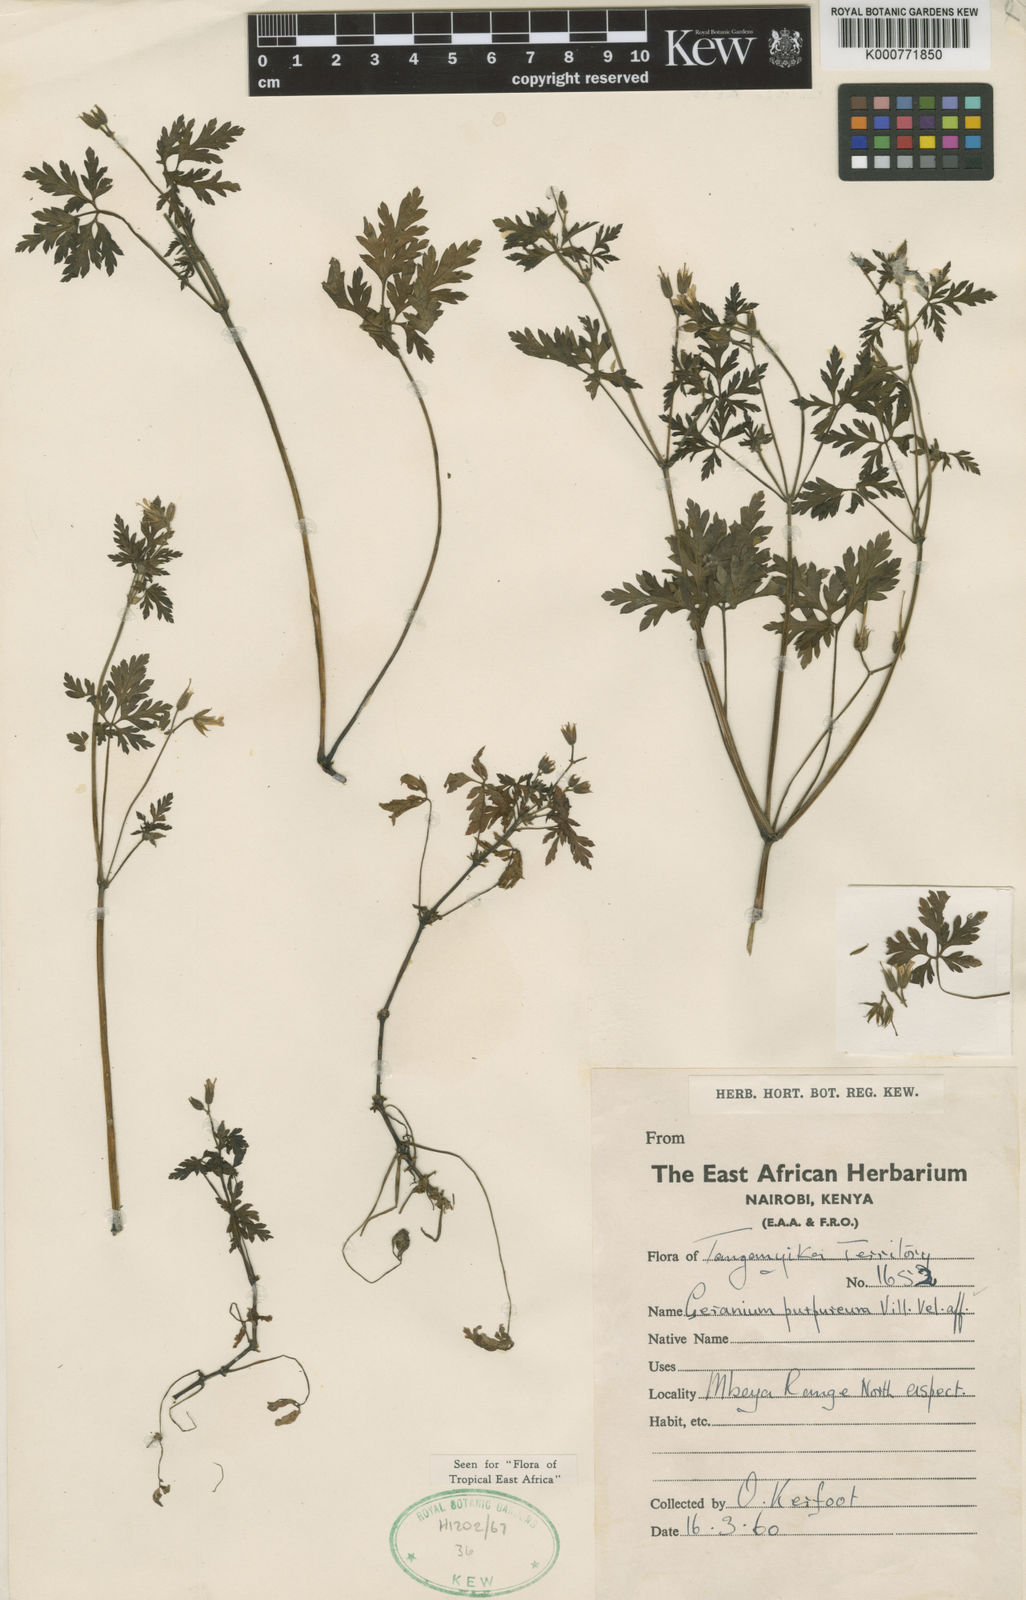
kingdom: Plantae
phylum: Tracheophyta
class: Magnoliopsida
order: Geraniales
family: Geraniaceae
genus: Geranium
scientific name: Geranium purpureum
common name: Little-robin
